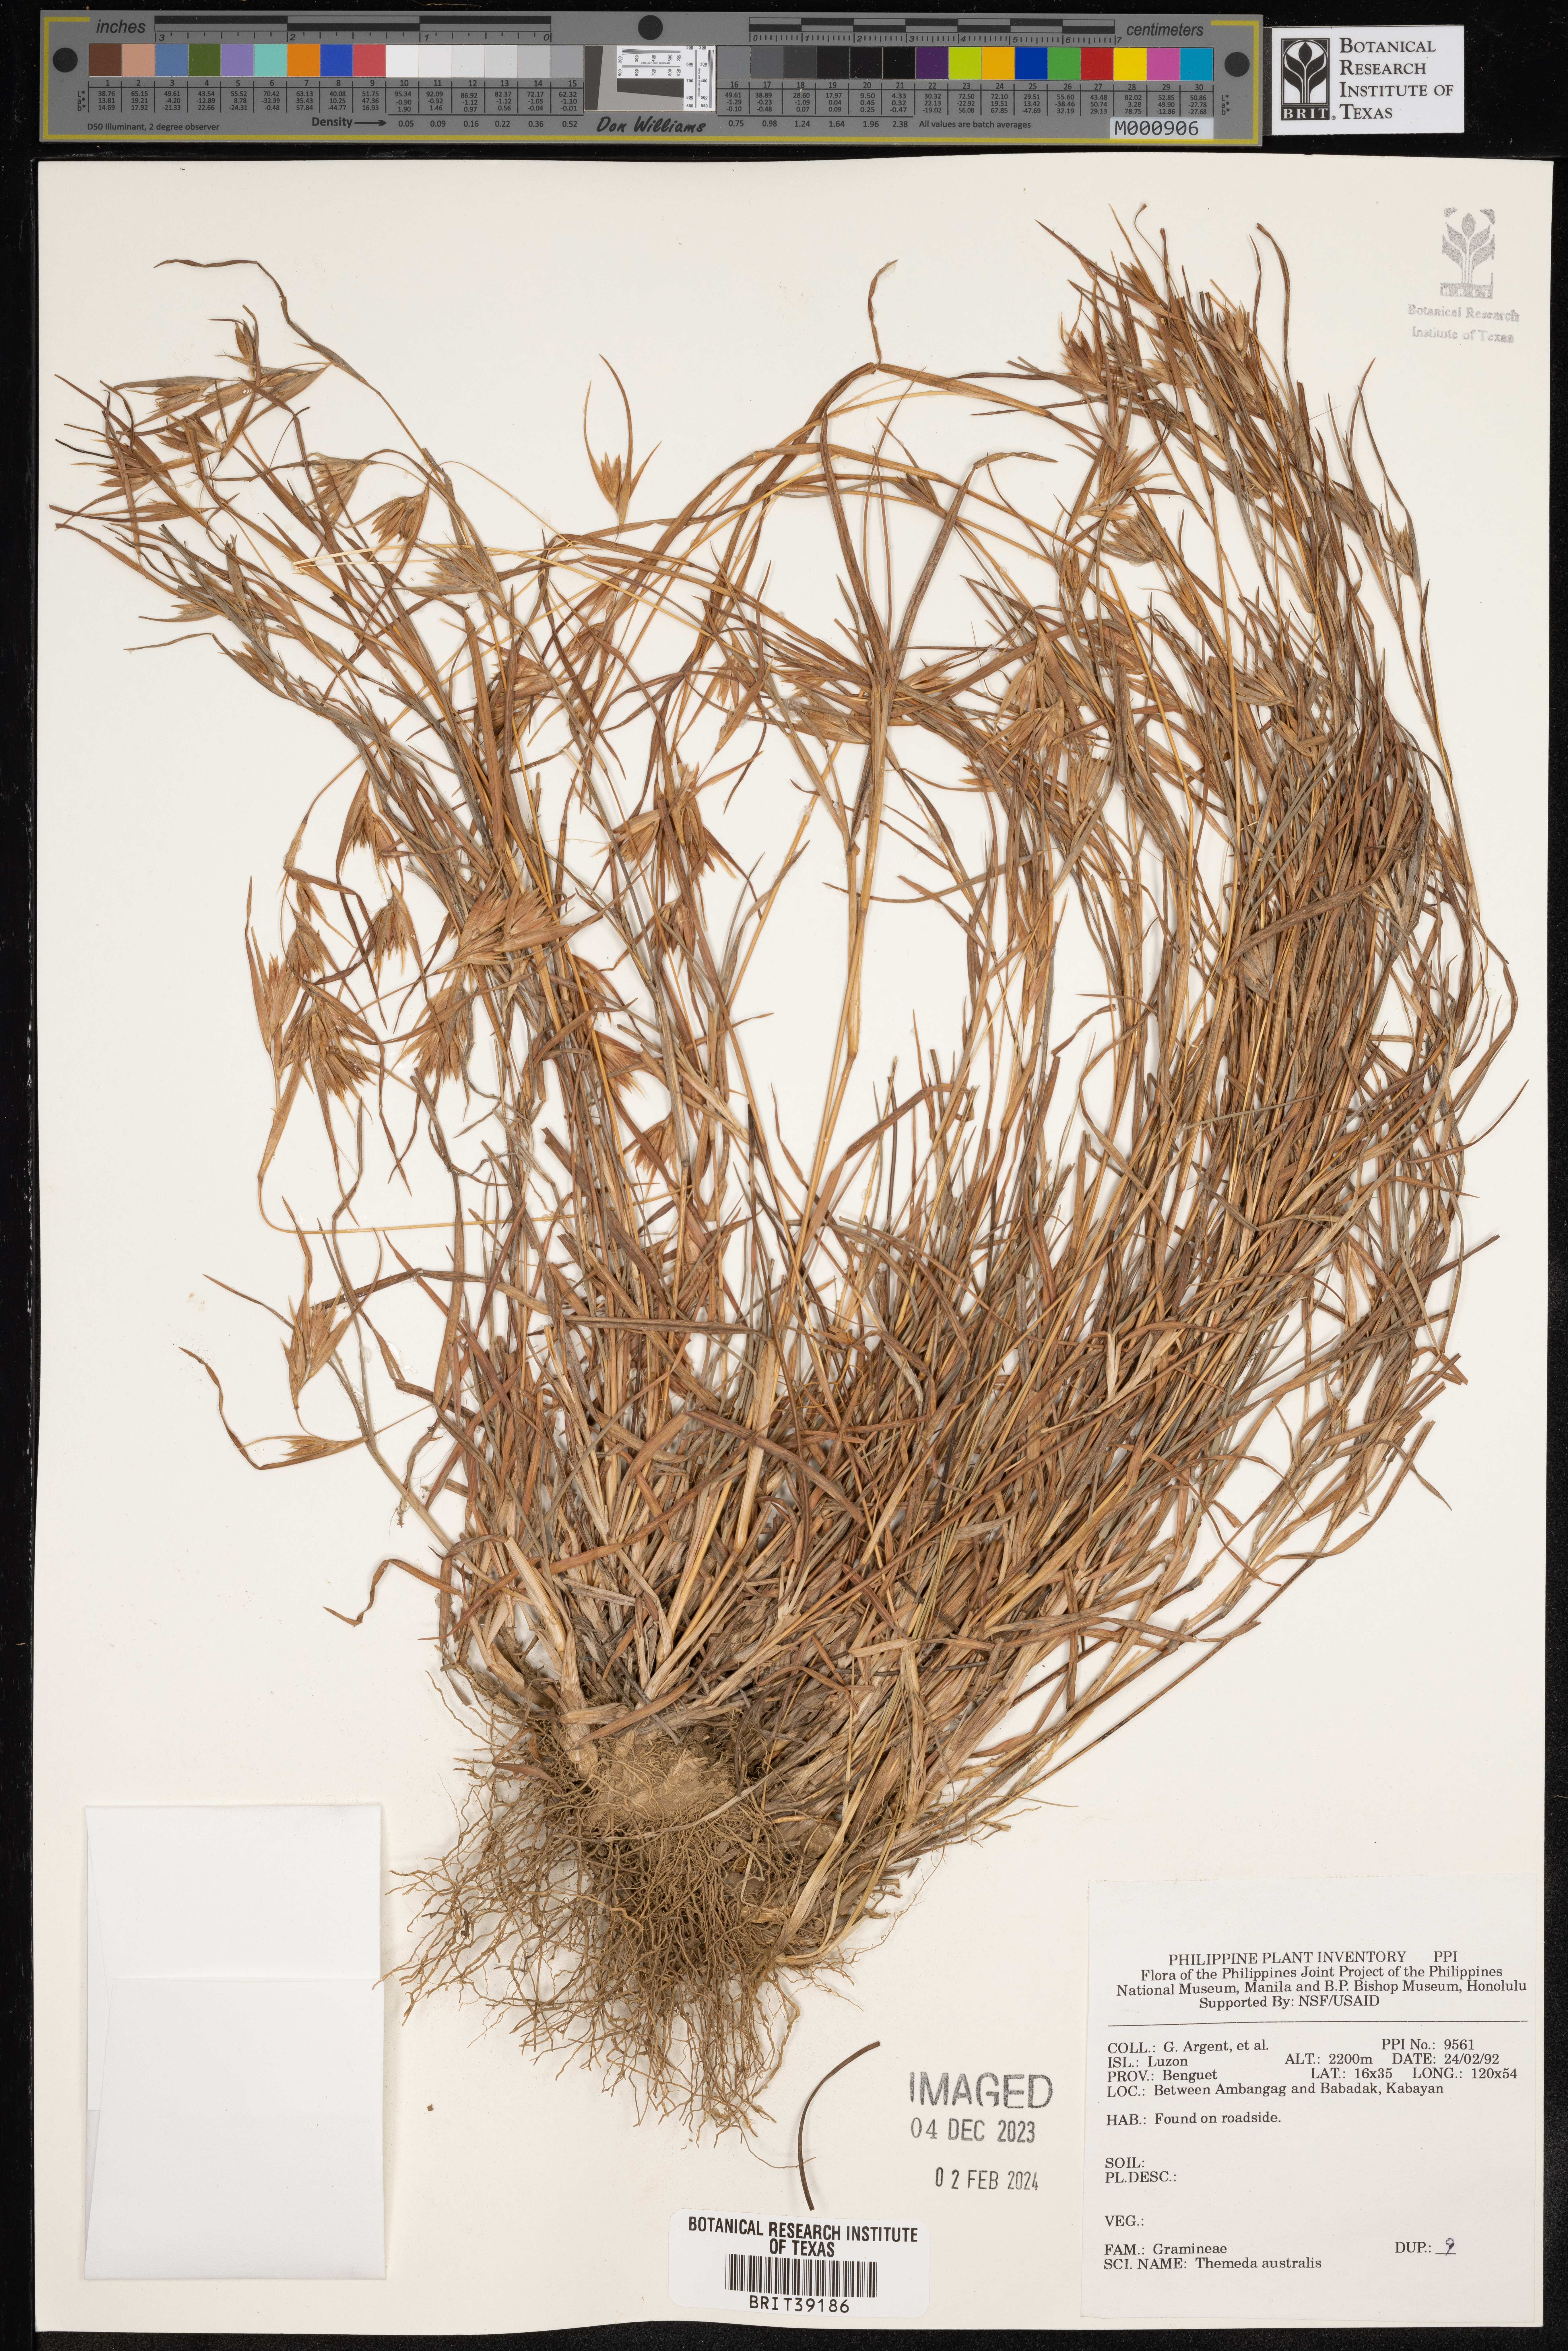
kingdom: Plantae
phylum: Tracheophyta
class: Liliopsida
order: Poales
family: Poaceae
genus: Themeda
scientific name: Themeda triandra
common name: Kangaroo grass
